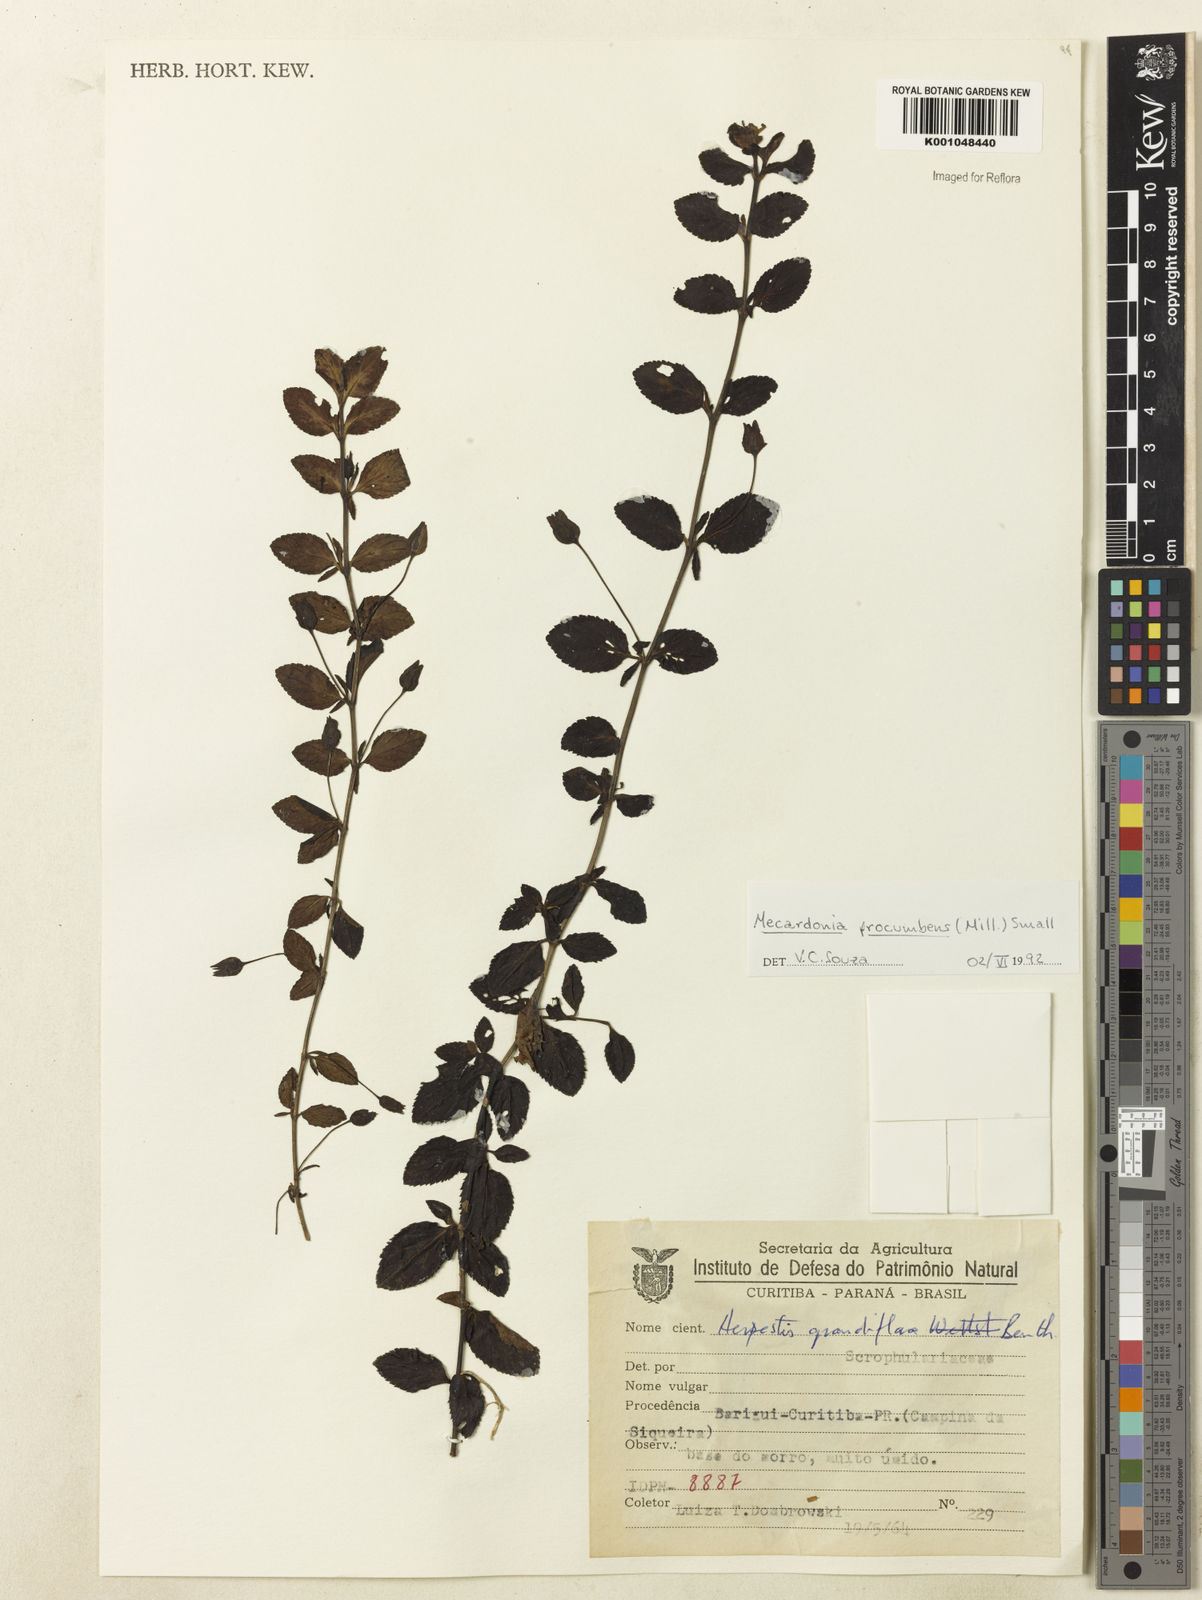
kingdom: Plantae
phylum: Tracheophyta
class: Magnoliopsida
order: Lamiales
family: Plantaginaceae
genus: Mecardonia
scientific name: Mecardonia procumbens
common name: Baby jump-up
